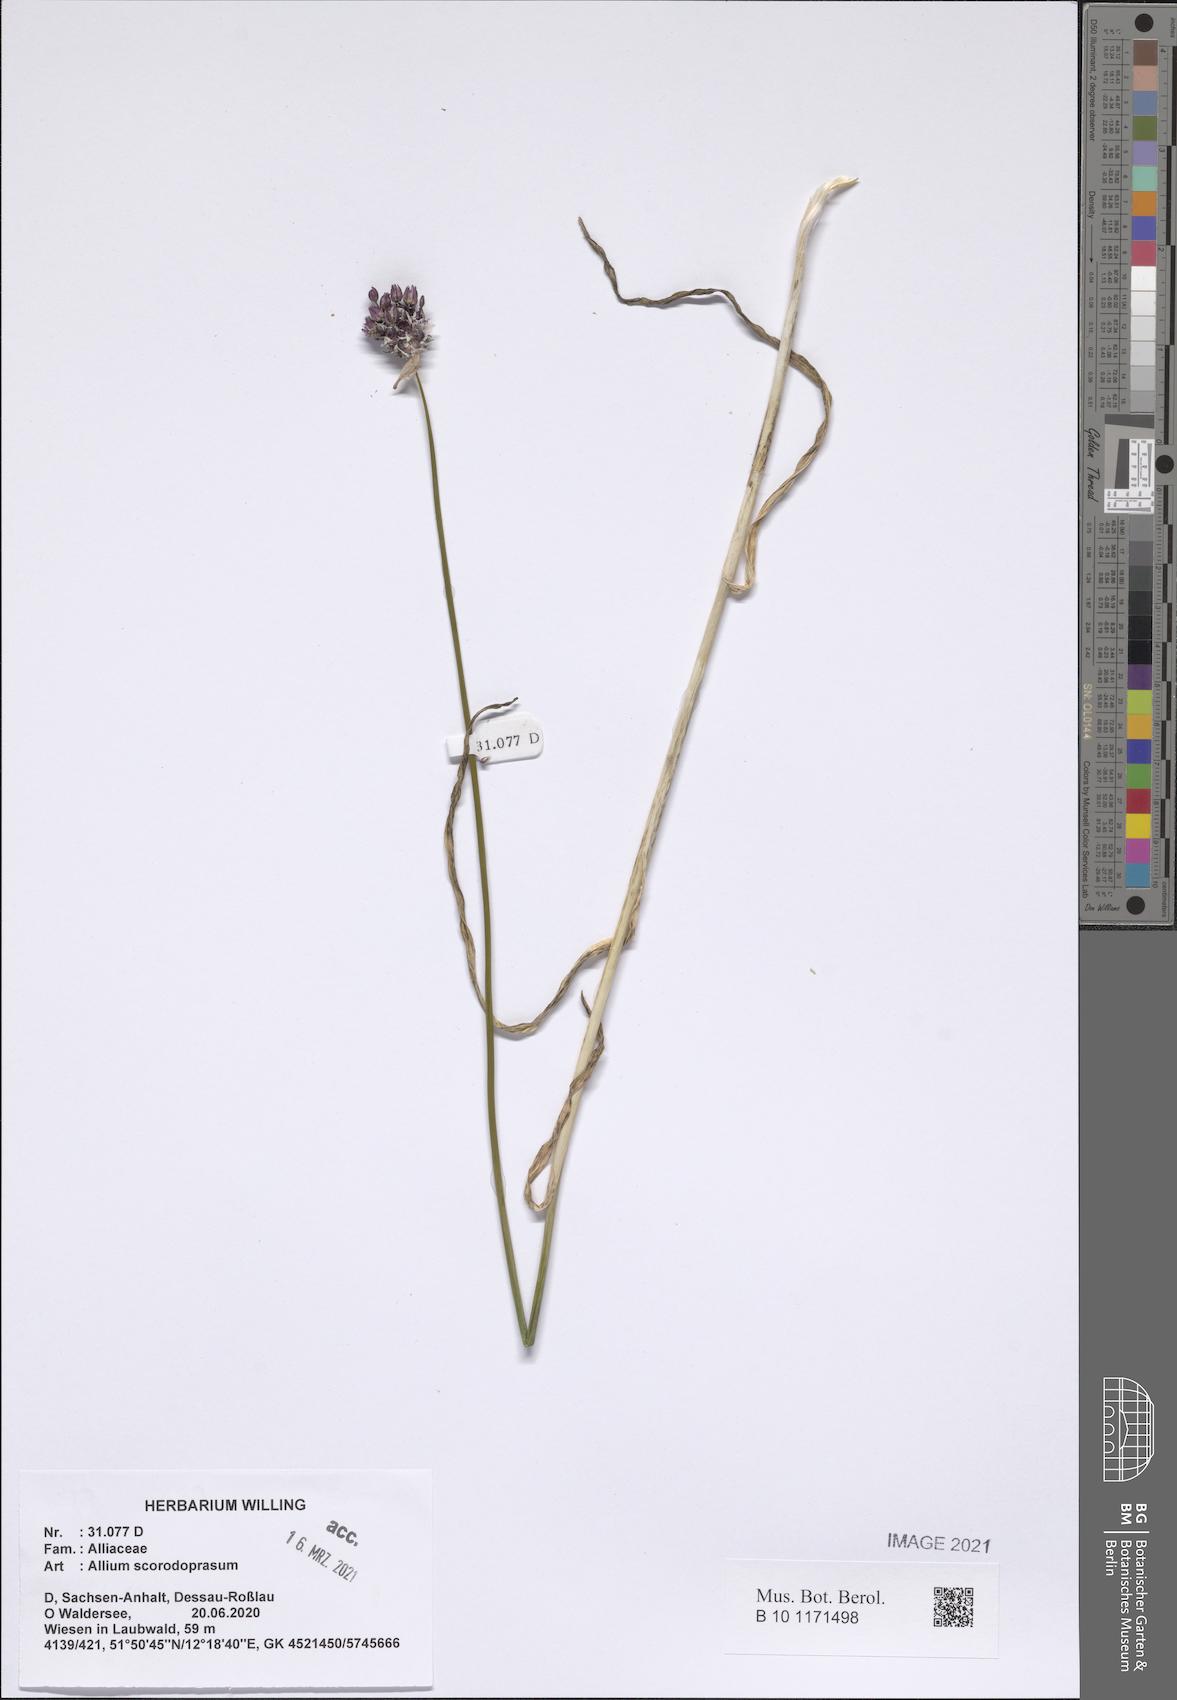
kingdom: Plantae
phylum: Tracheophyta
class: Liliopsida
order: Asparagales
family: Amaryllidaceae
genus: Allium
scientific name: Allium scorodoprasum
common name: Sand leek
